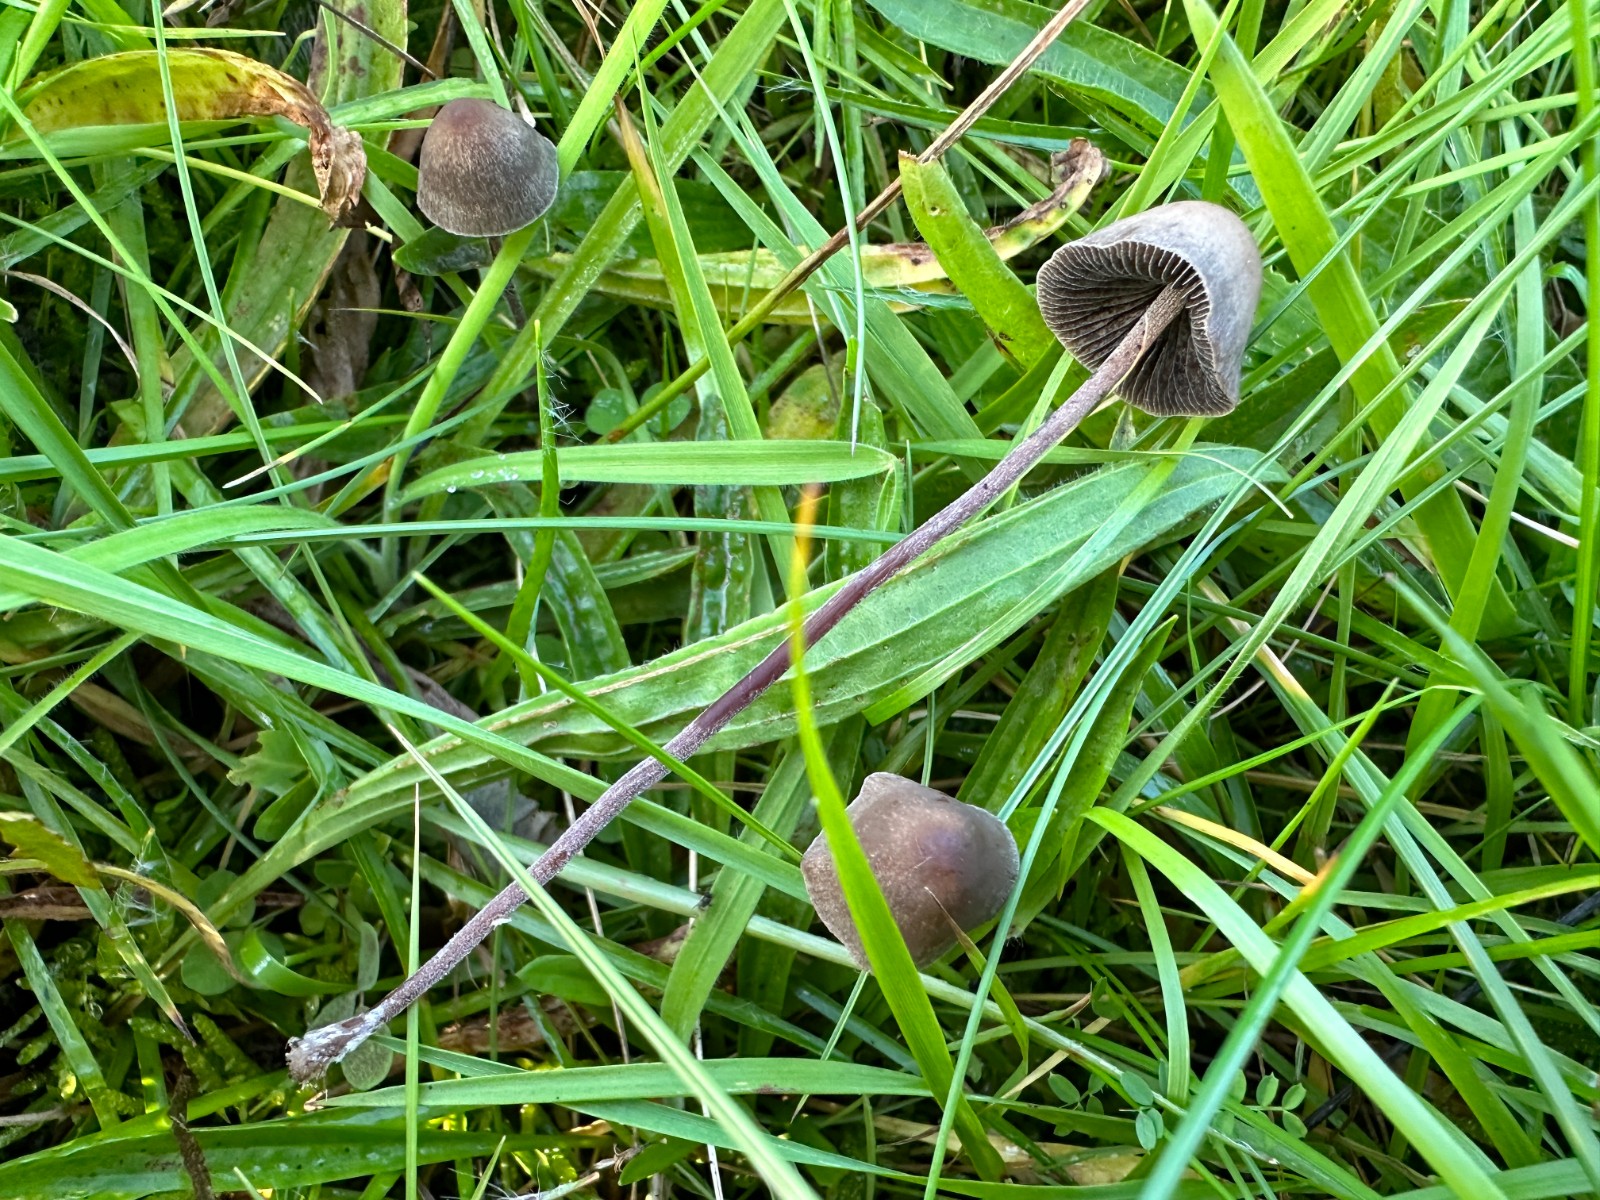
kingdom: Fungi
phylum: Basidiomycota
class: Agaricomycetes
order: Agaricales
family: Bolbitiaceae
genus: Panaeolus
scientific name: Panaeolus acuminatus
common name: høj glanshat
